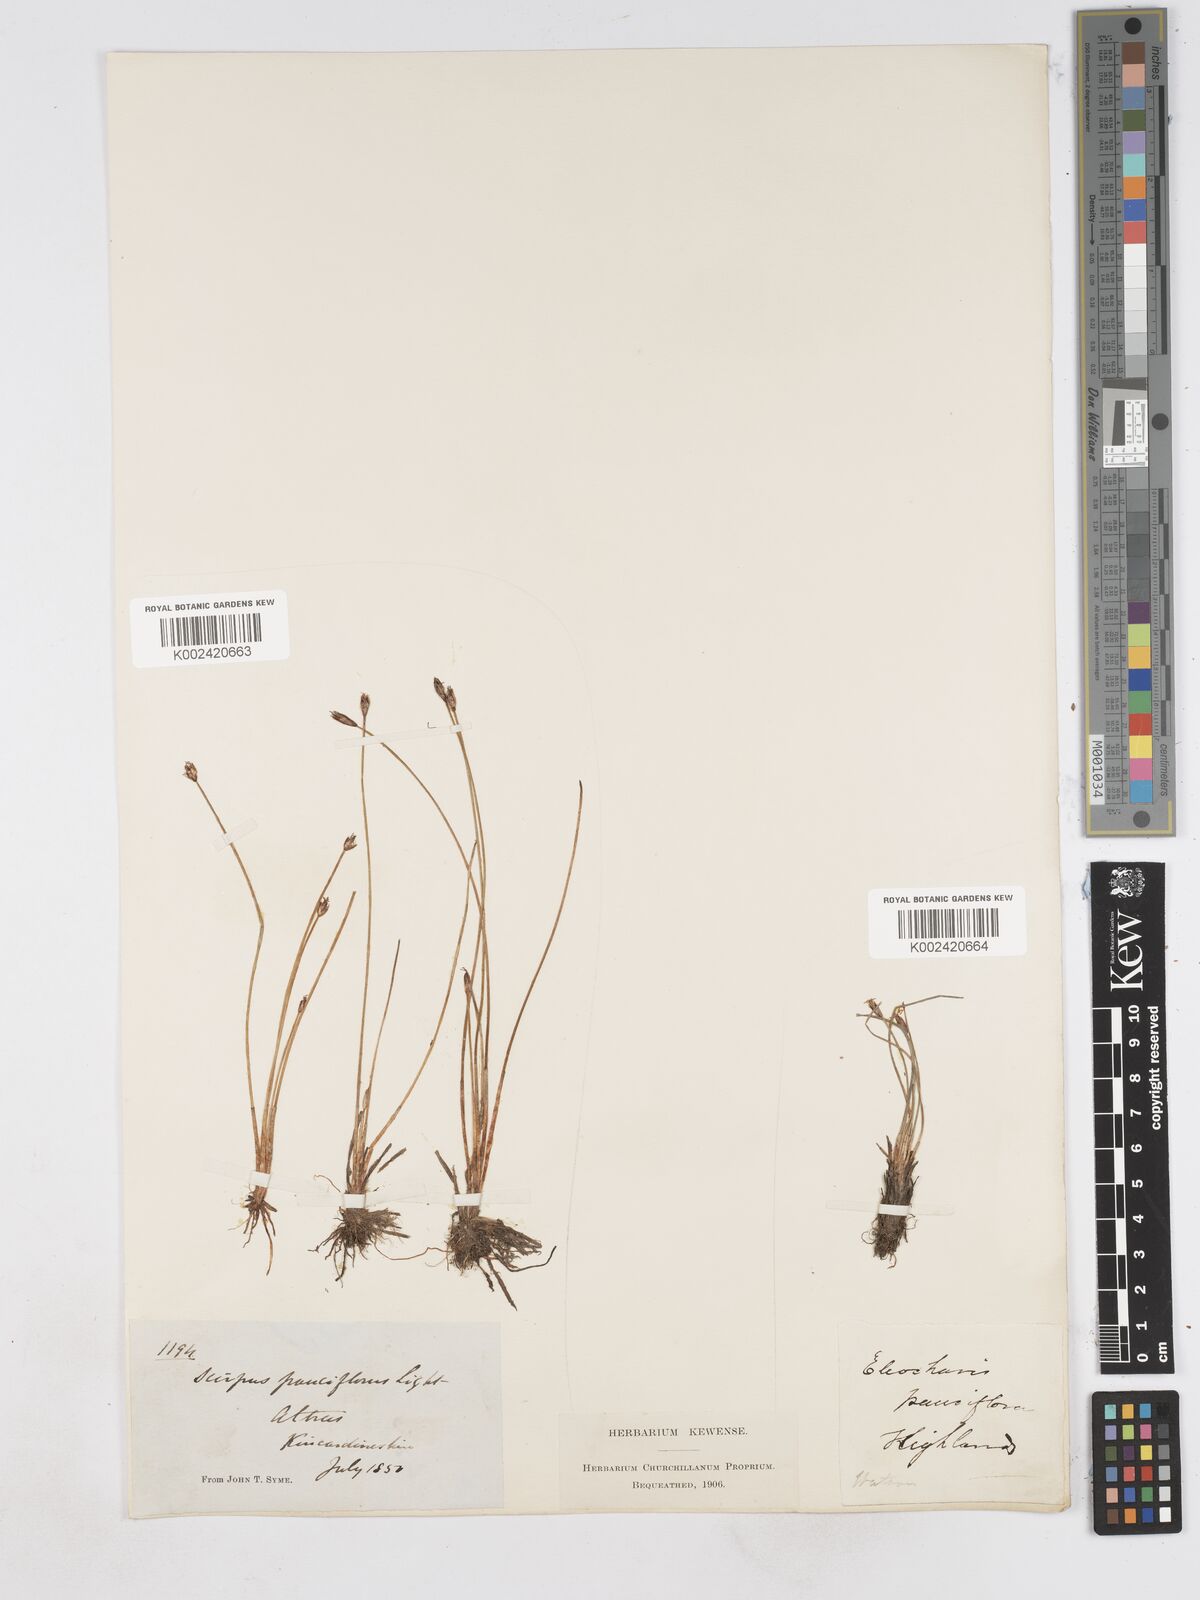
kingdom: Plantae
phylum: Tracheophyta
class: Liliopsida
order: Poales
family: Cyperaceae
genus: Eleocharis
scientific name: Eleocharis quinqueflora
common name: Few-flowered spike-rush
